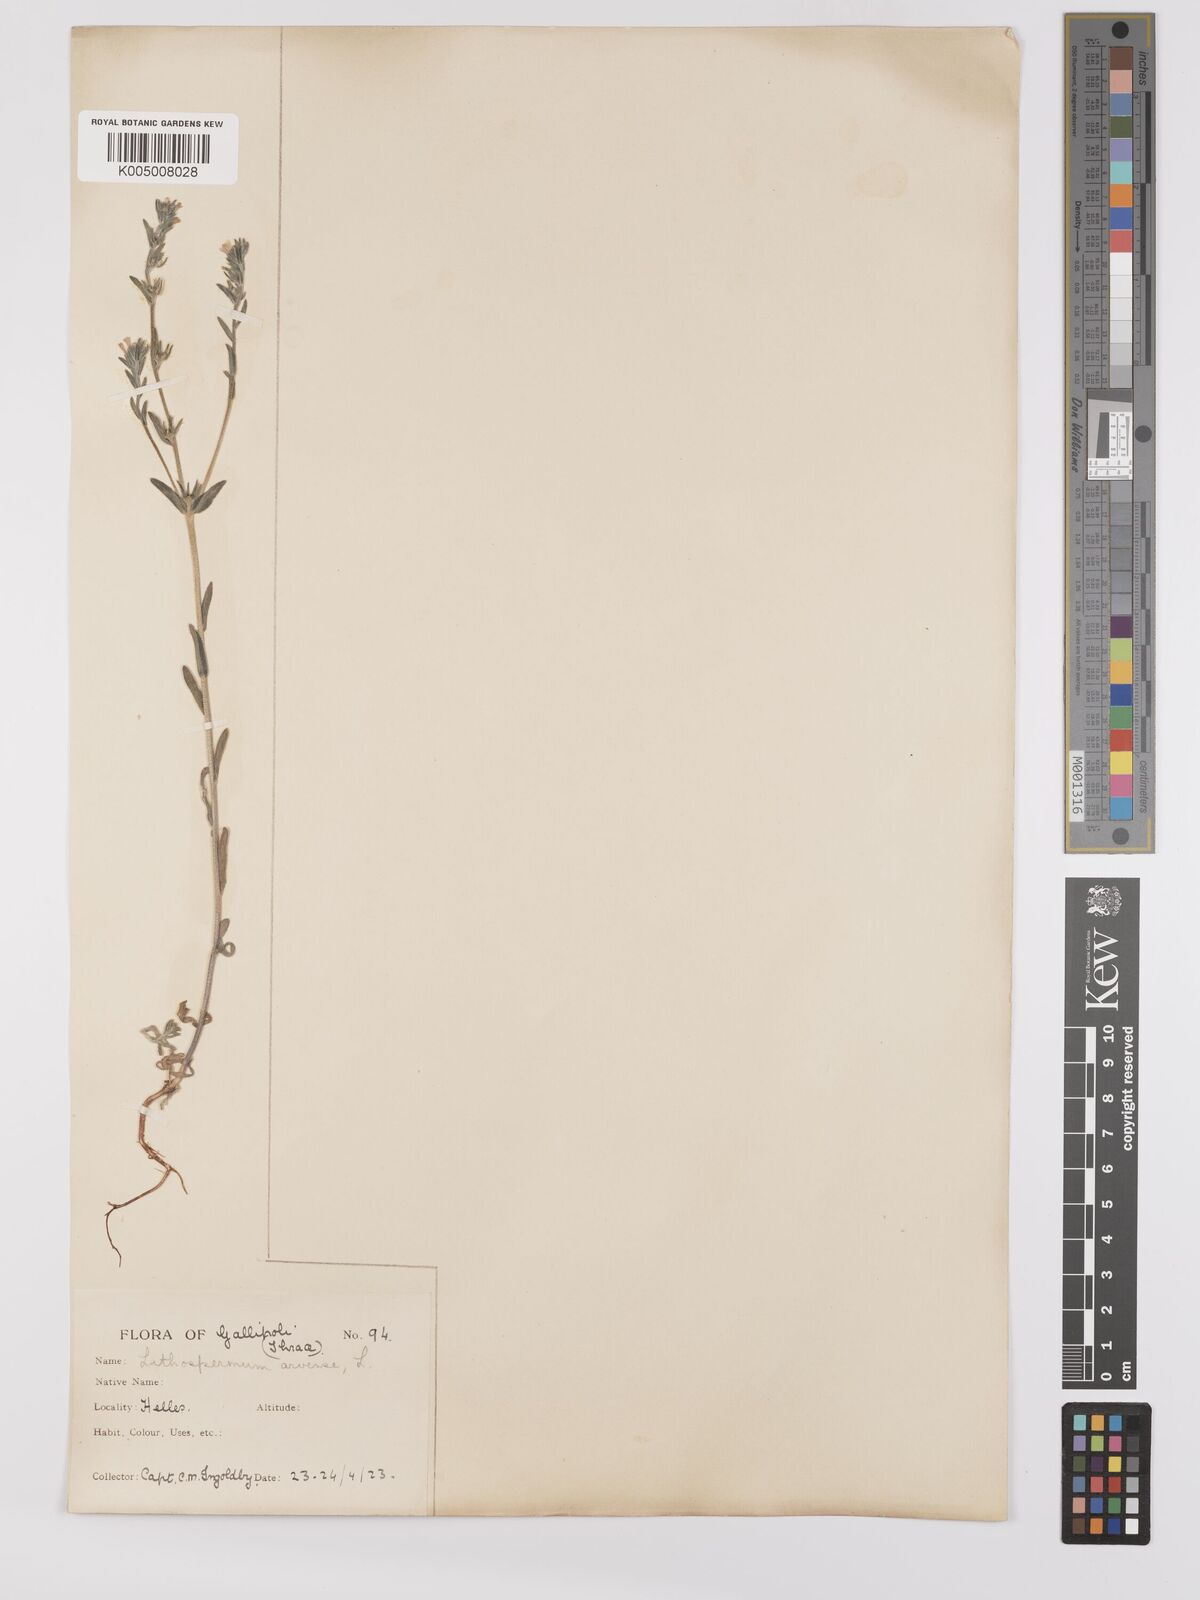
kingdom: Plantae
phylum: Tracheophyta
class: Magnoliopsida
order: Boraginales
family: Boraginaceae
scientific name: Boraginaceae
